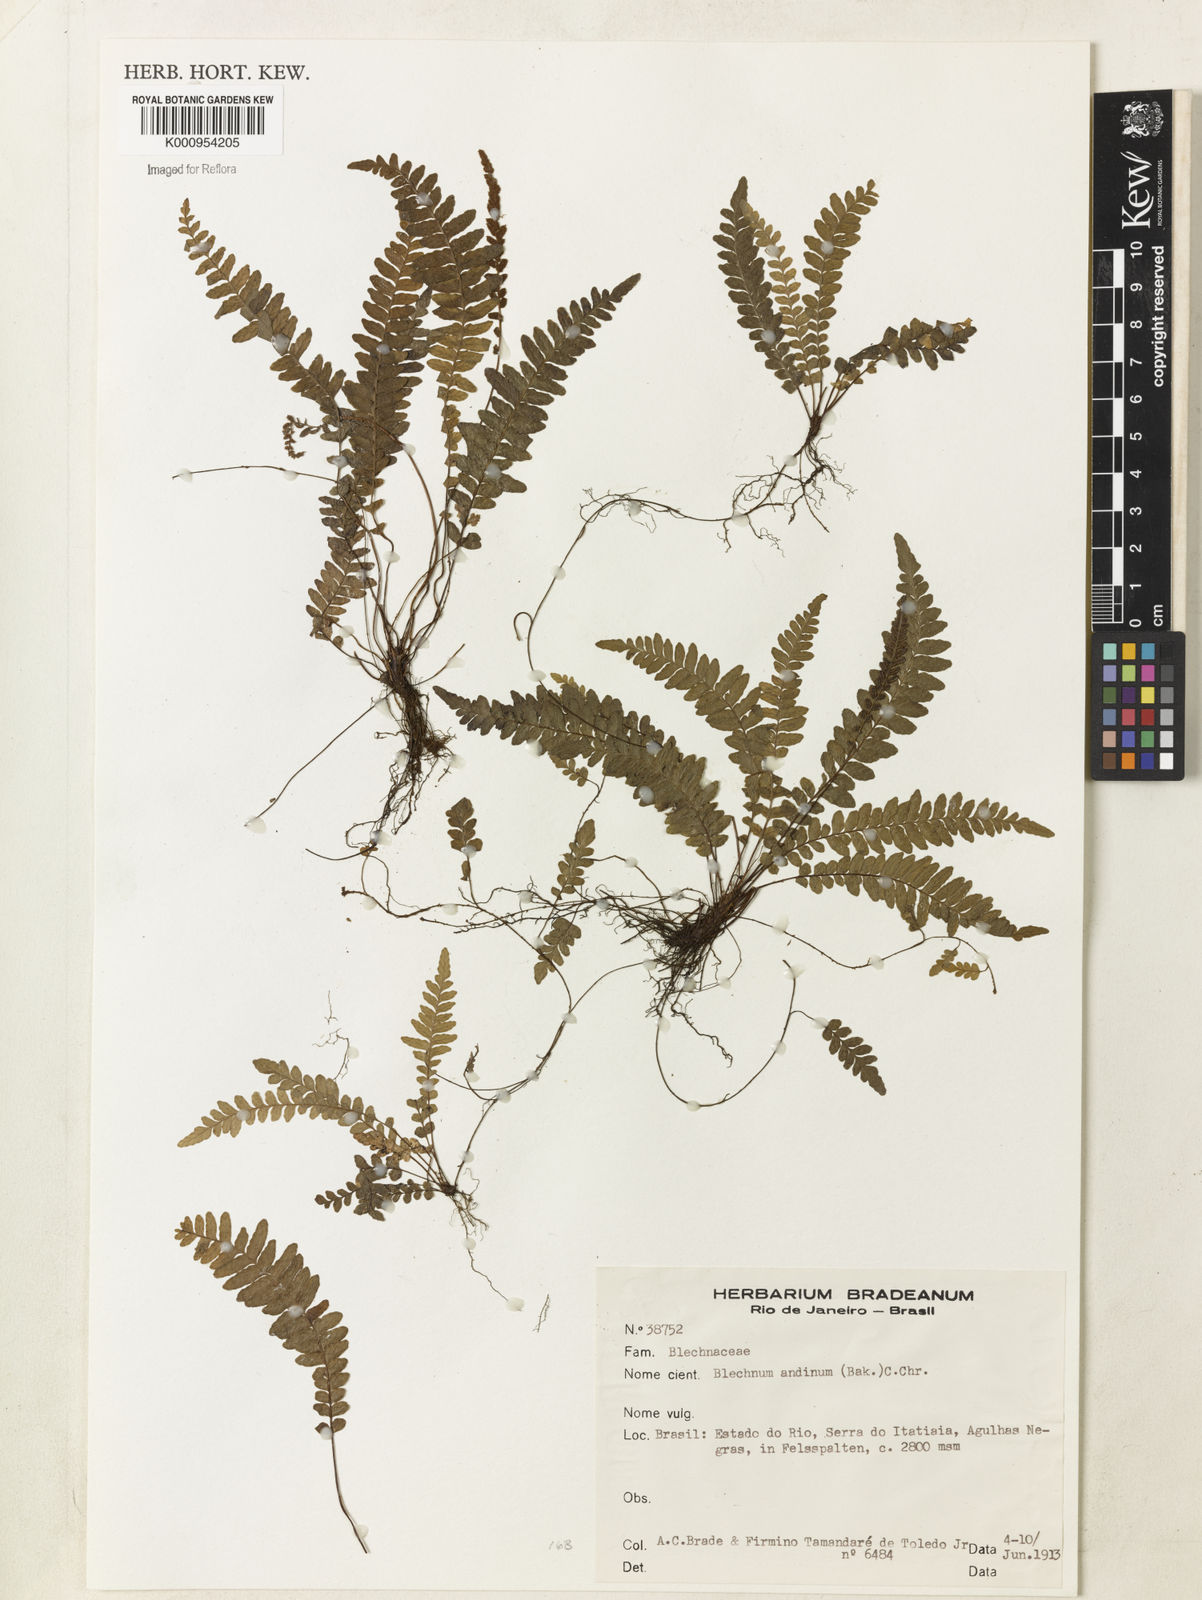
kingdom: Plantae
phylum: Tracheophyta
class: Polypodiopsida
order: Polypodiales
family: Blechnaceae
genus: Austroblechnum
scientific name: Austroblechnum andinum
